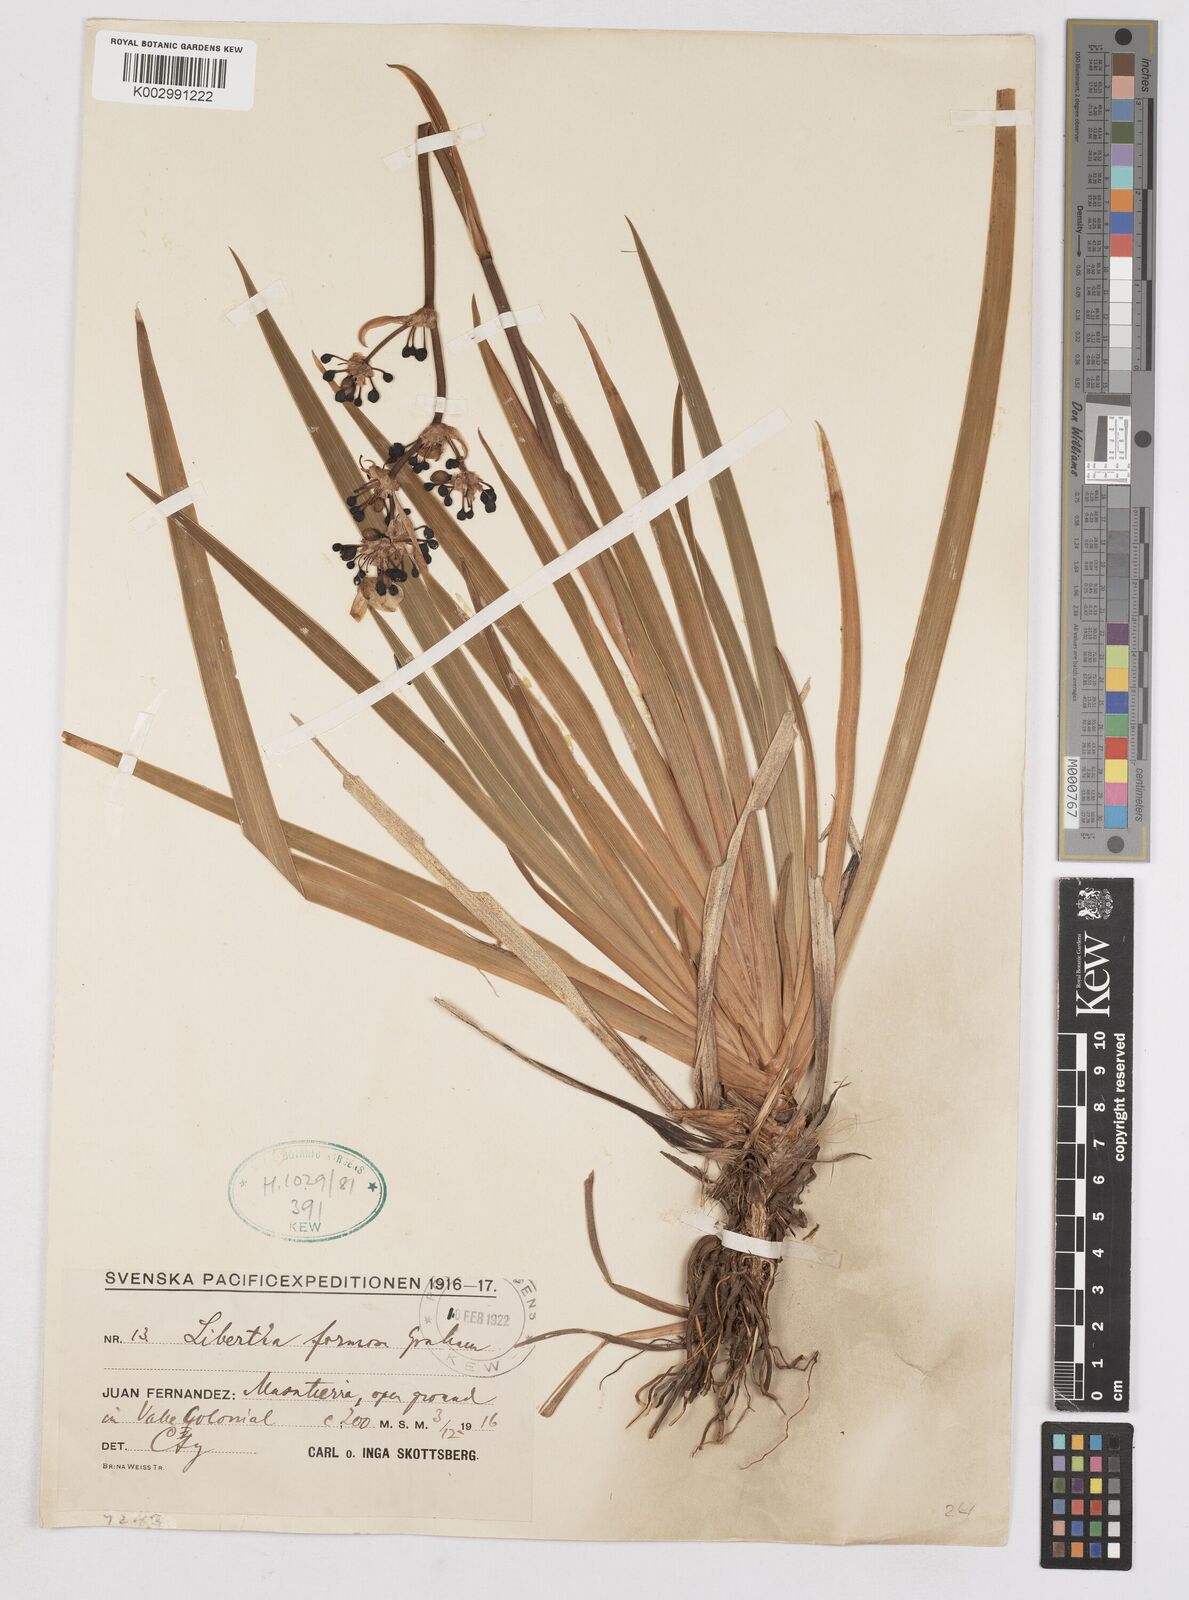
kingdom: Plantae
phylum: Tracheophyta
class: Liliopsida
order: Asparagales
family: Iridaceae
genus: Libertia
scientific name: Libertia chilensis
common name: Satin flower
